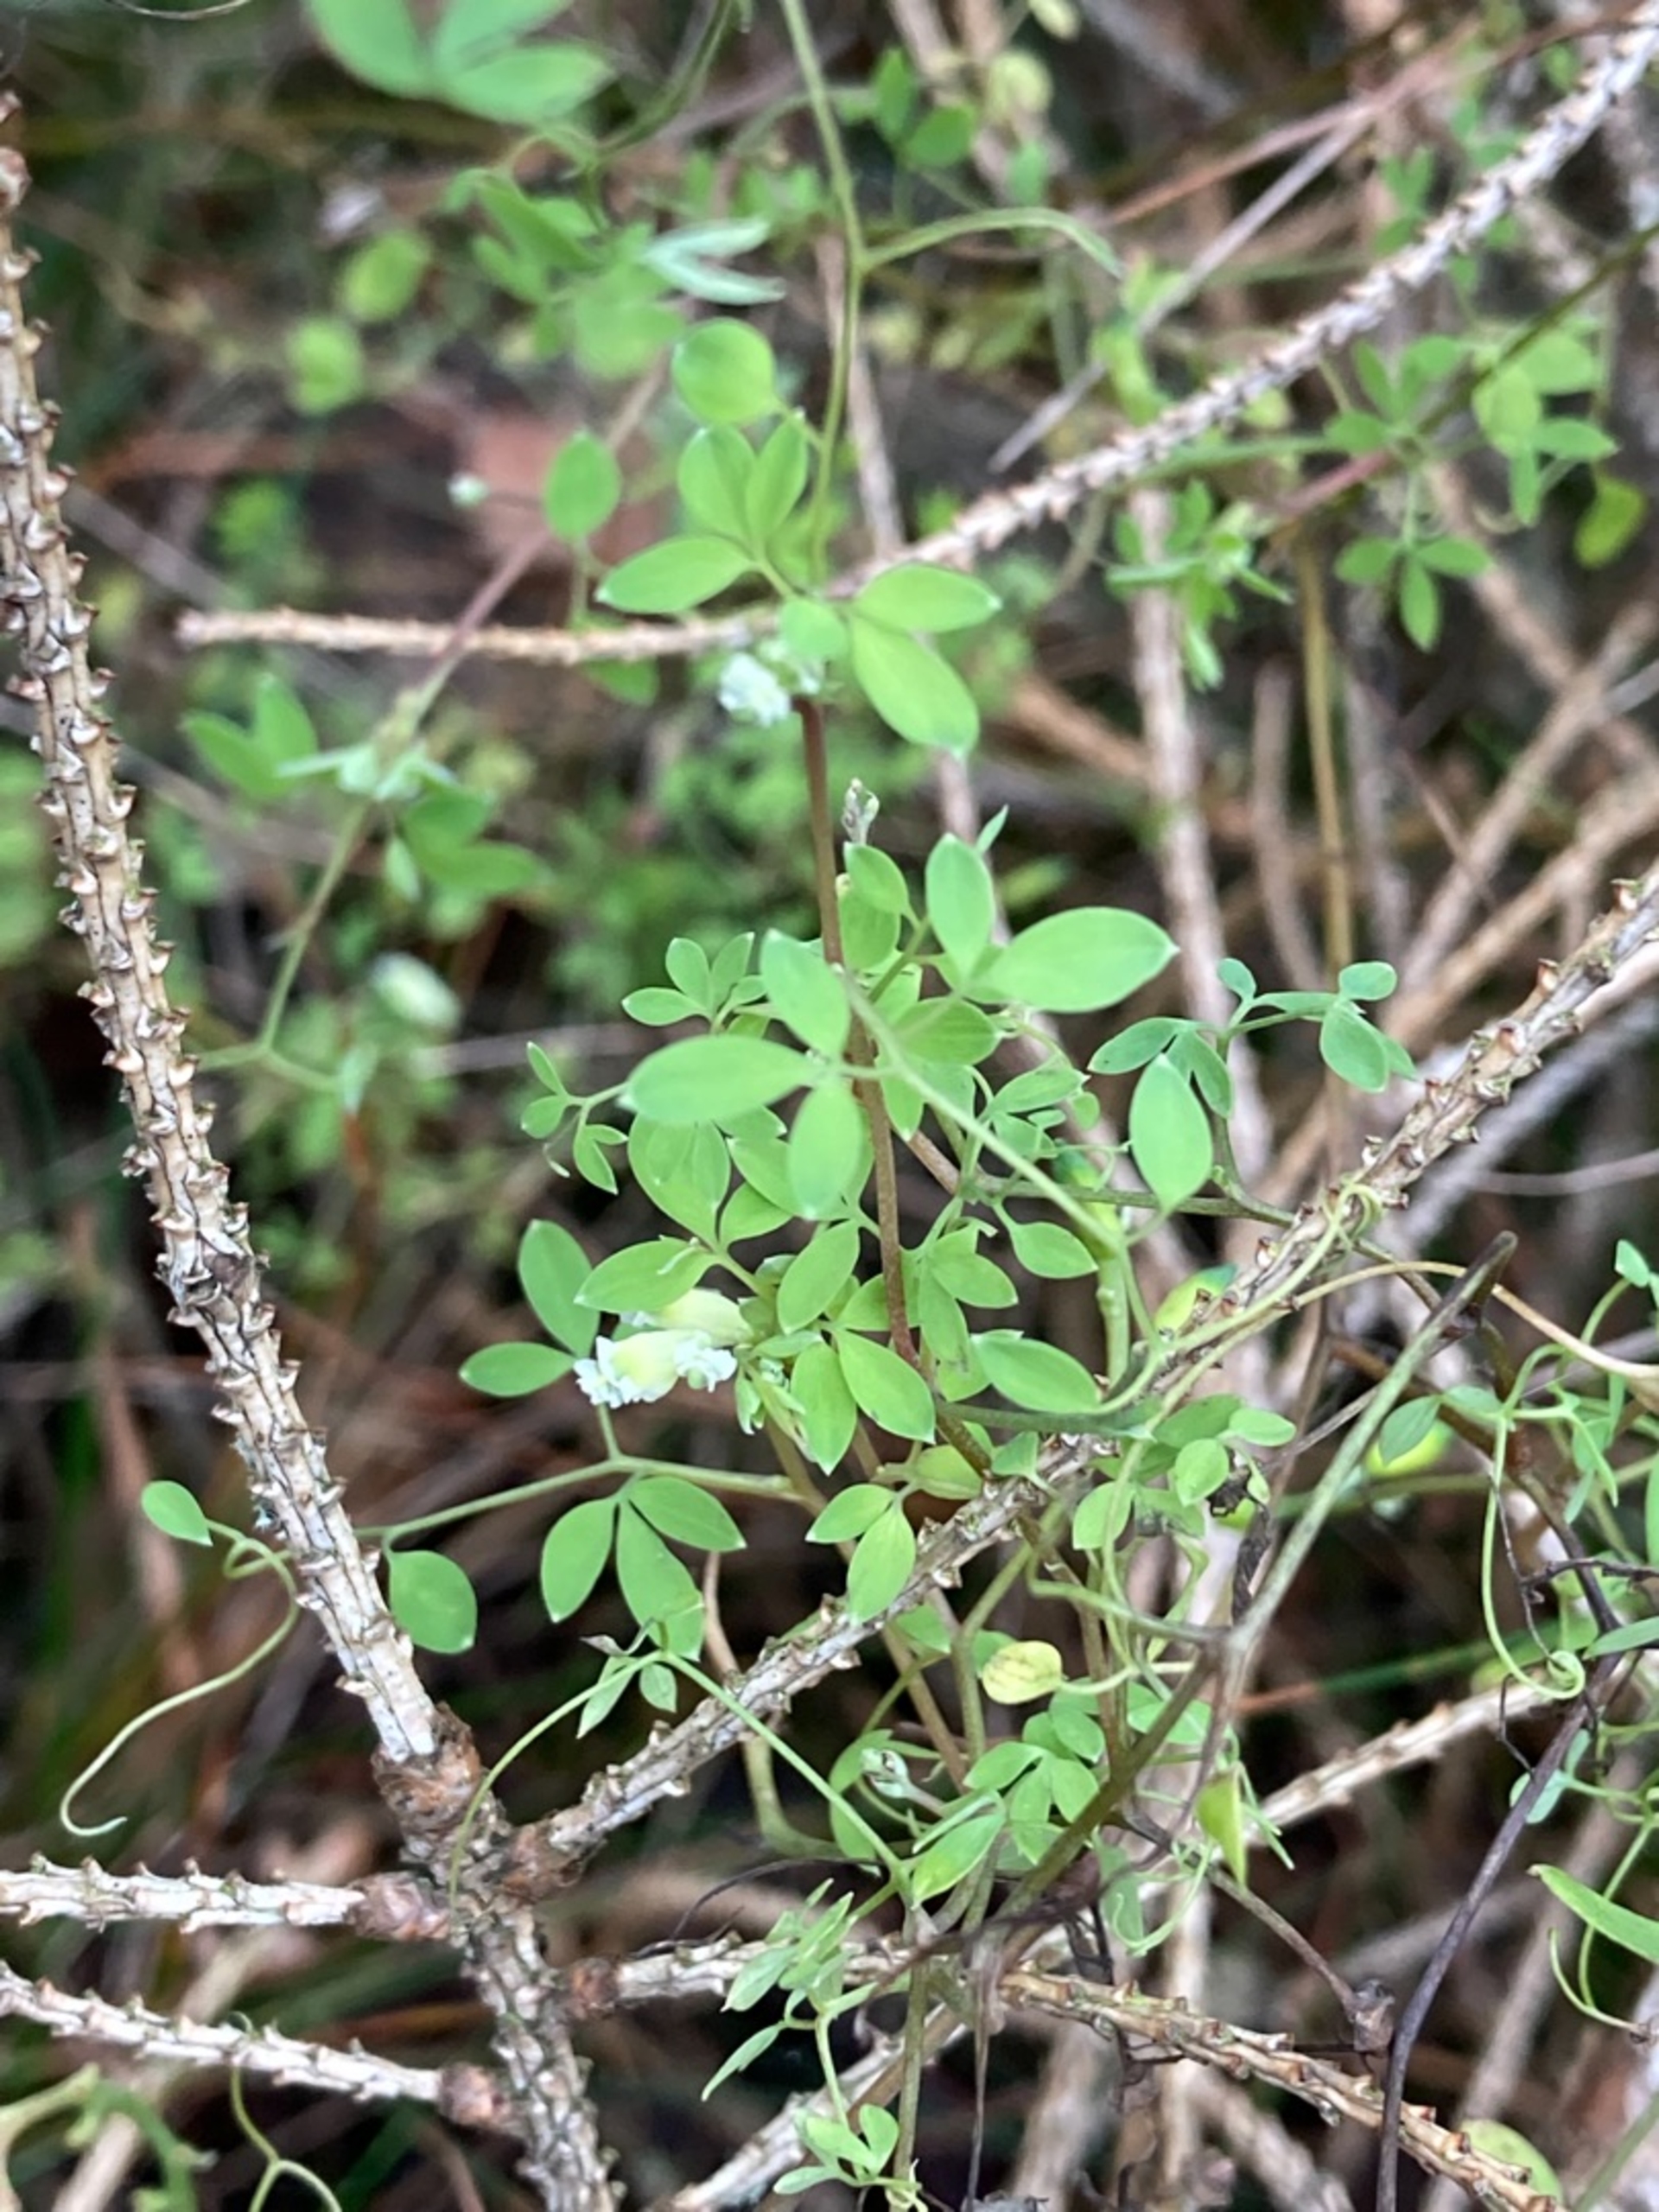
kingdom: Plantae
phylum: Tracheophyta
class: Magnoliopsida
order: Ranunculales
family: Papaveraceae
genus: Ceratocapnos
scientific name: Ceratocapnos claviculata
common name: Klatrende lærkespore
